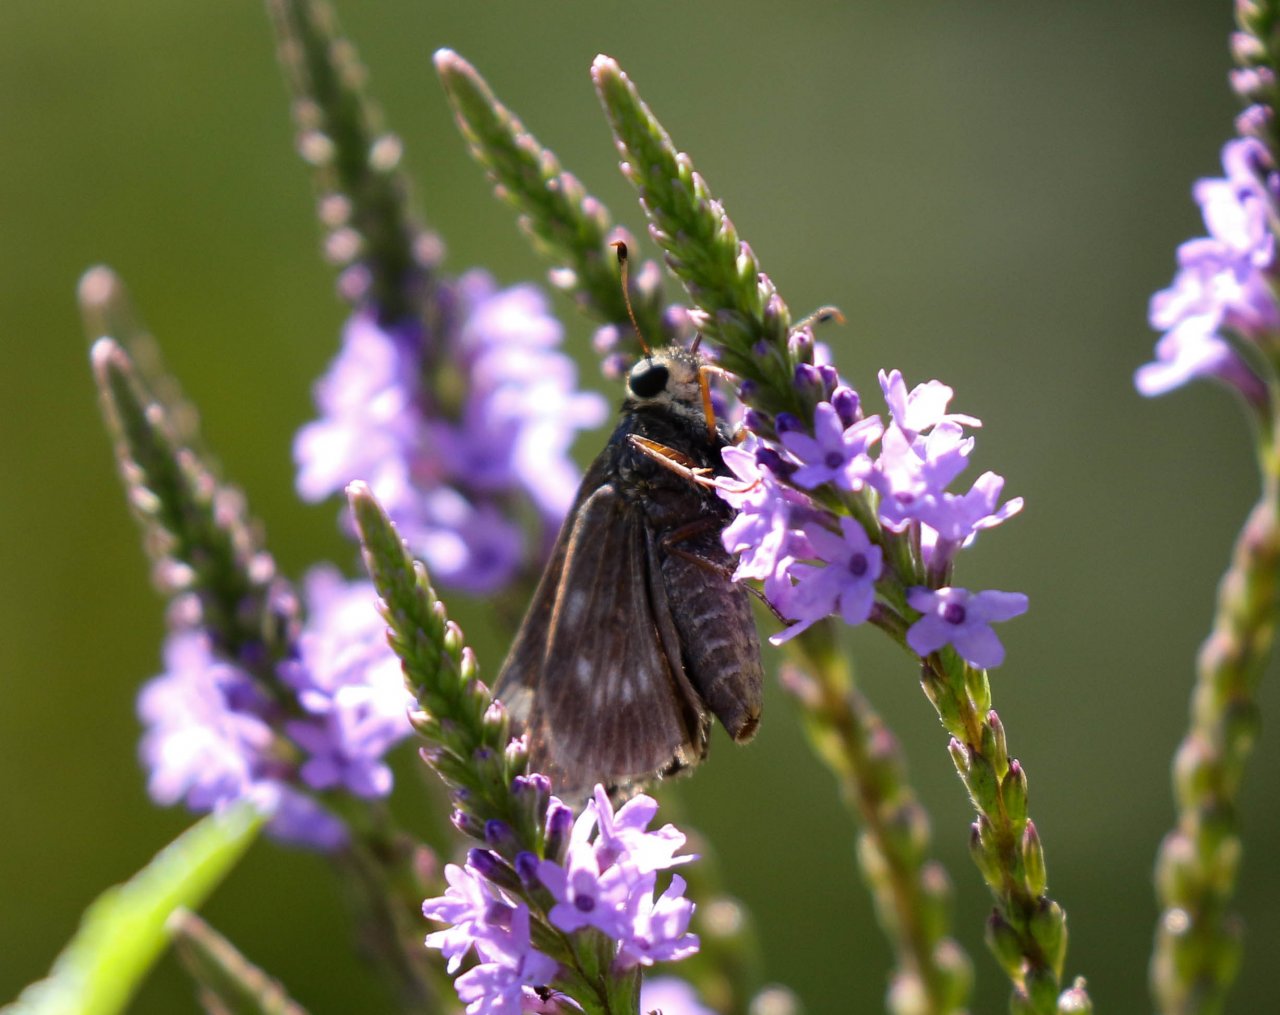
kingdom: Animalia
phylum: Arthropoda
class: Insecta
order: Lepidoptera
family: Hesperiidae
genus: Vernia
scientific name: Vernia verna
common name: Little Glassywing
